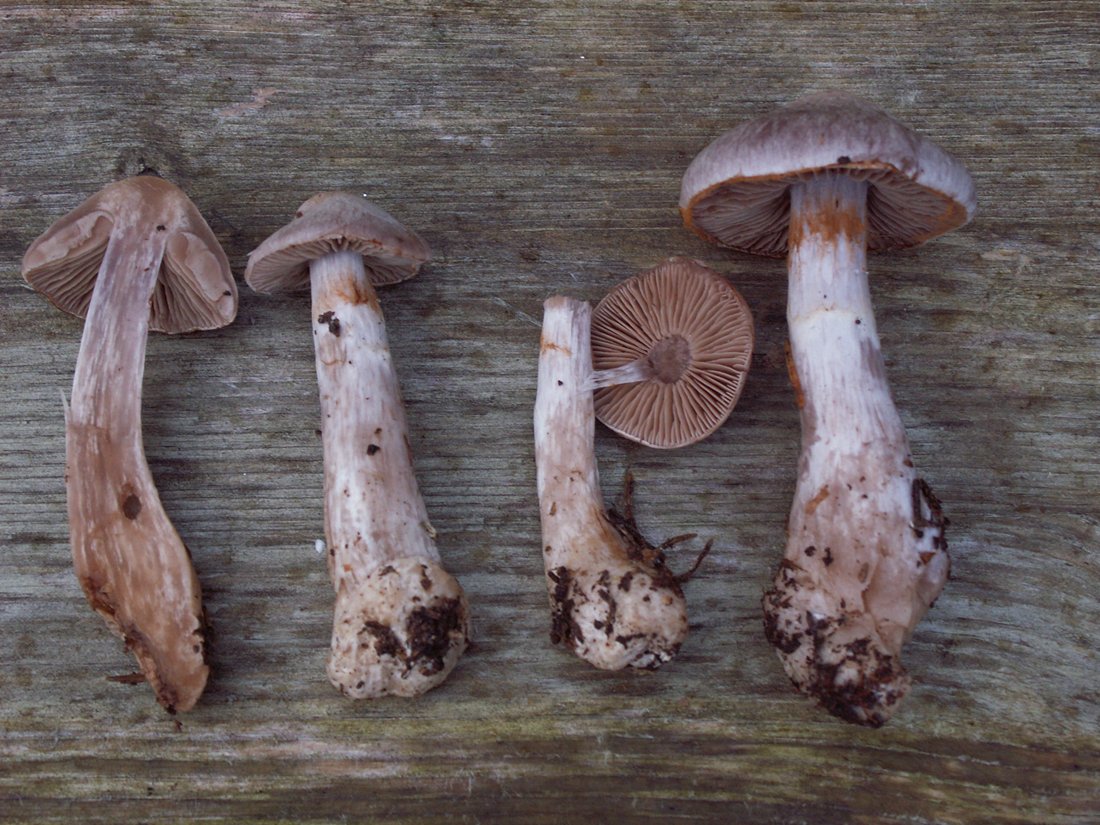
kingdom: Fungi
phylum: Basidiomycota
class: Agaricomycetes
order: Agaricales
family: Cortinariaceae
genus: Cortinarius
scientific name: Cortinarius malachius
